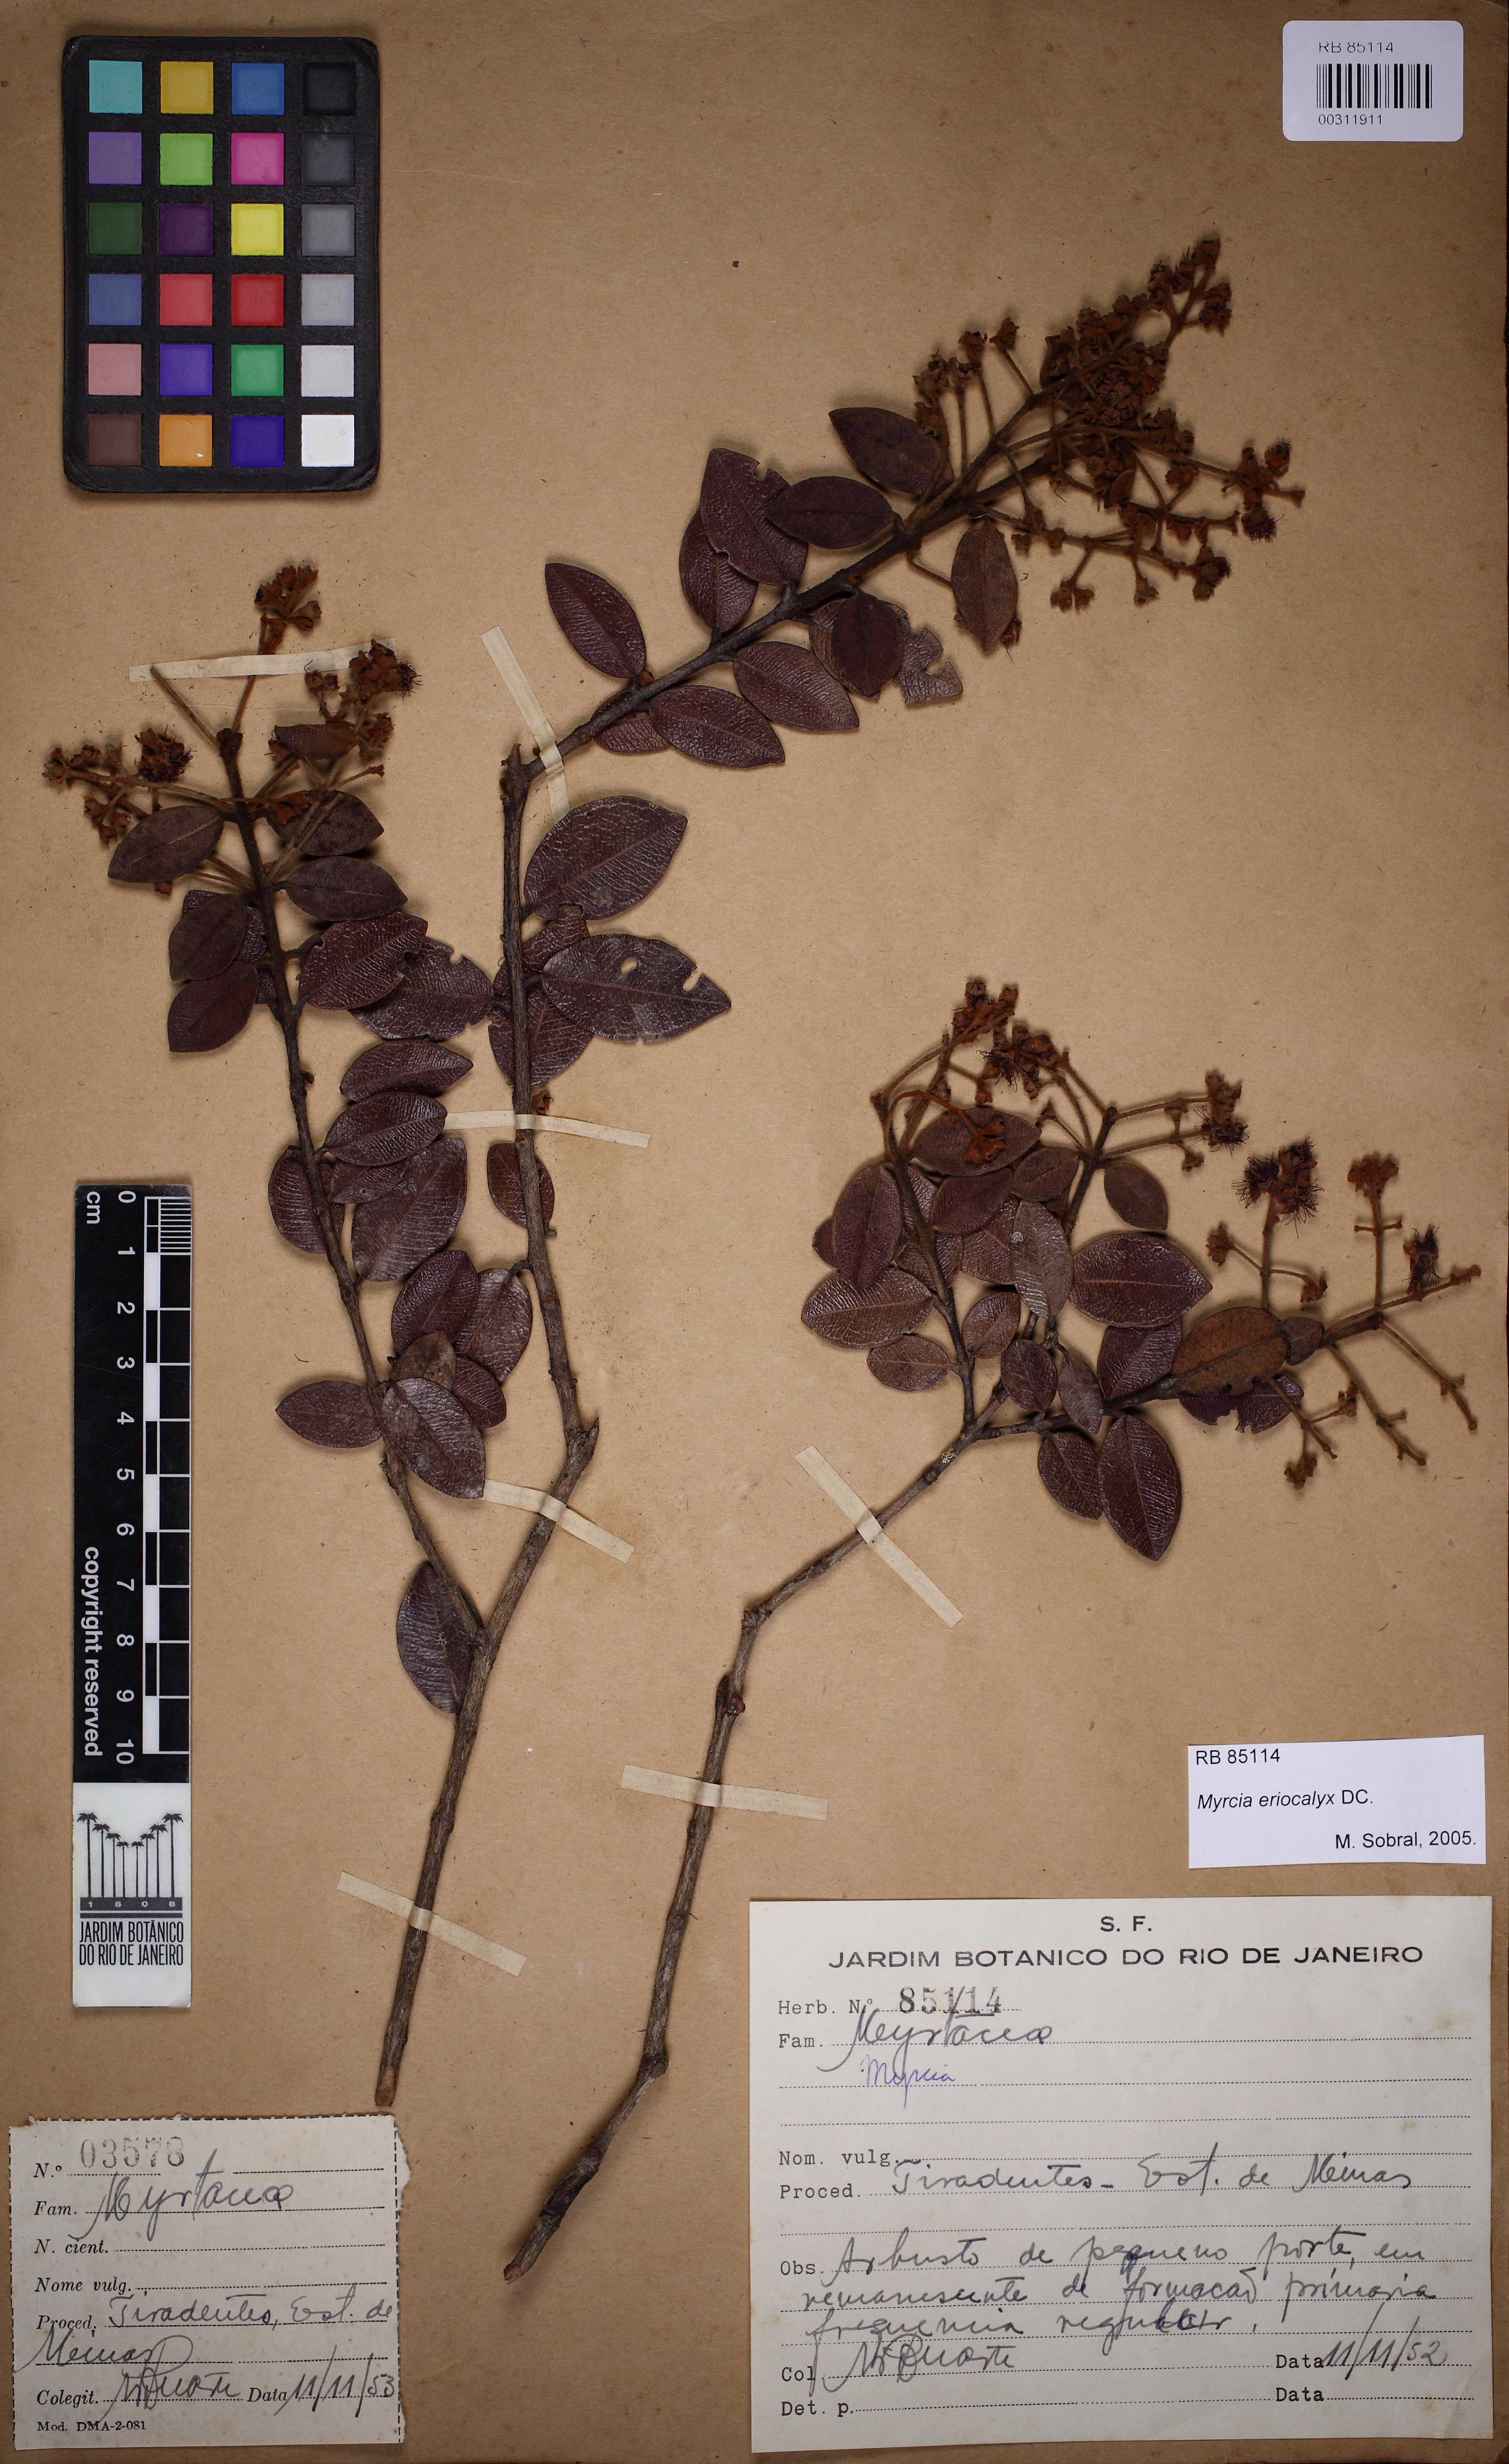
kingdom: Plantae
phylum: Tracheophyta
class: Magnoliopsida
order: Myrtales
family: Myrtaceae
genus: Myrcia
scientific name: Myrcia venulosa
